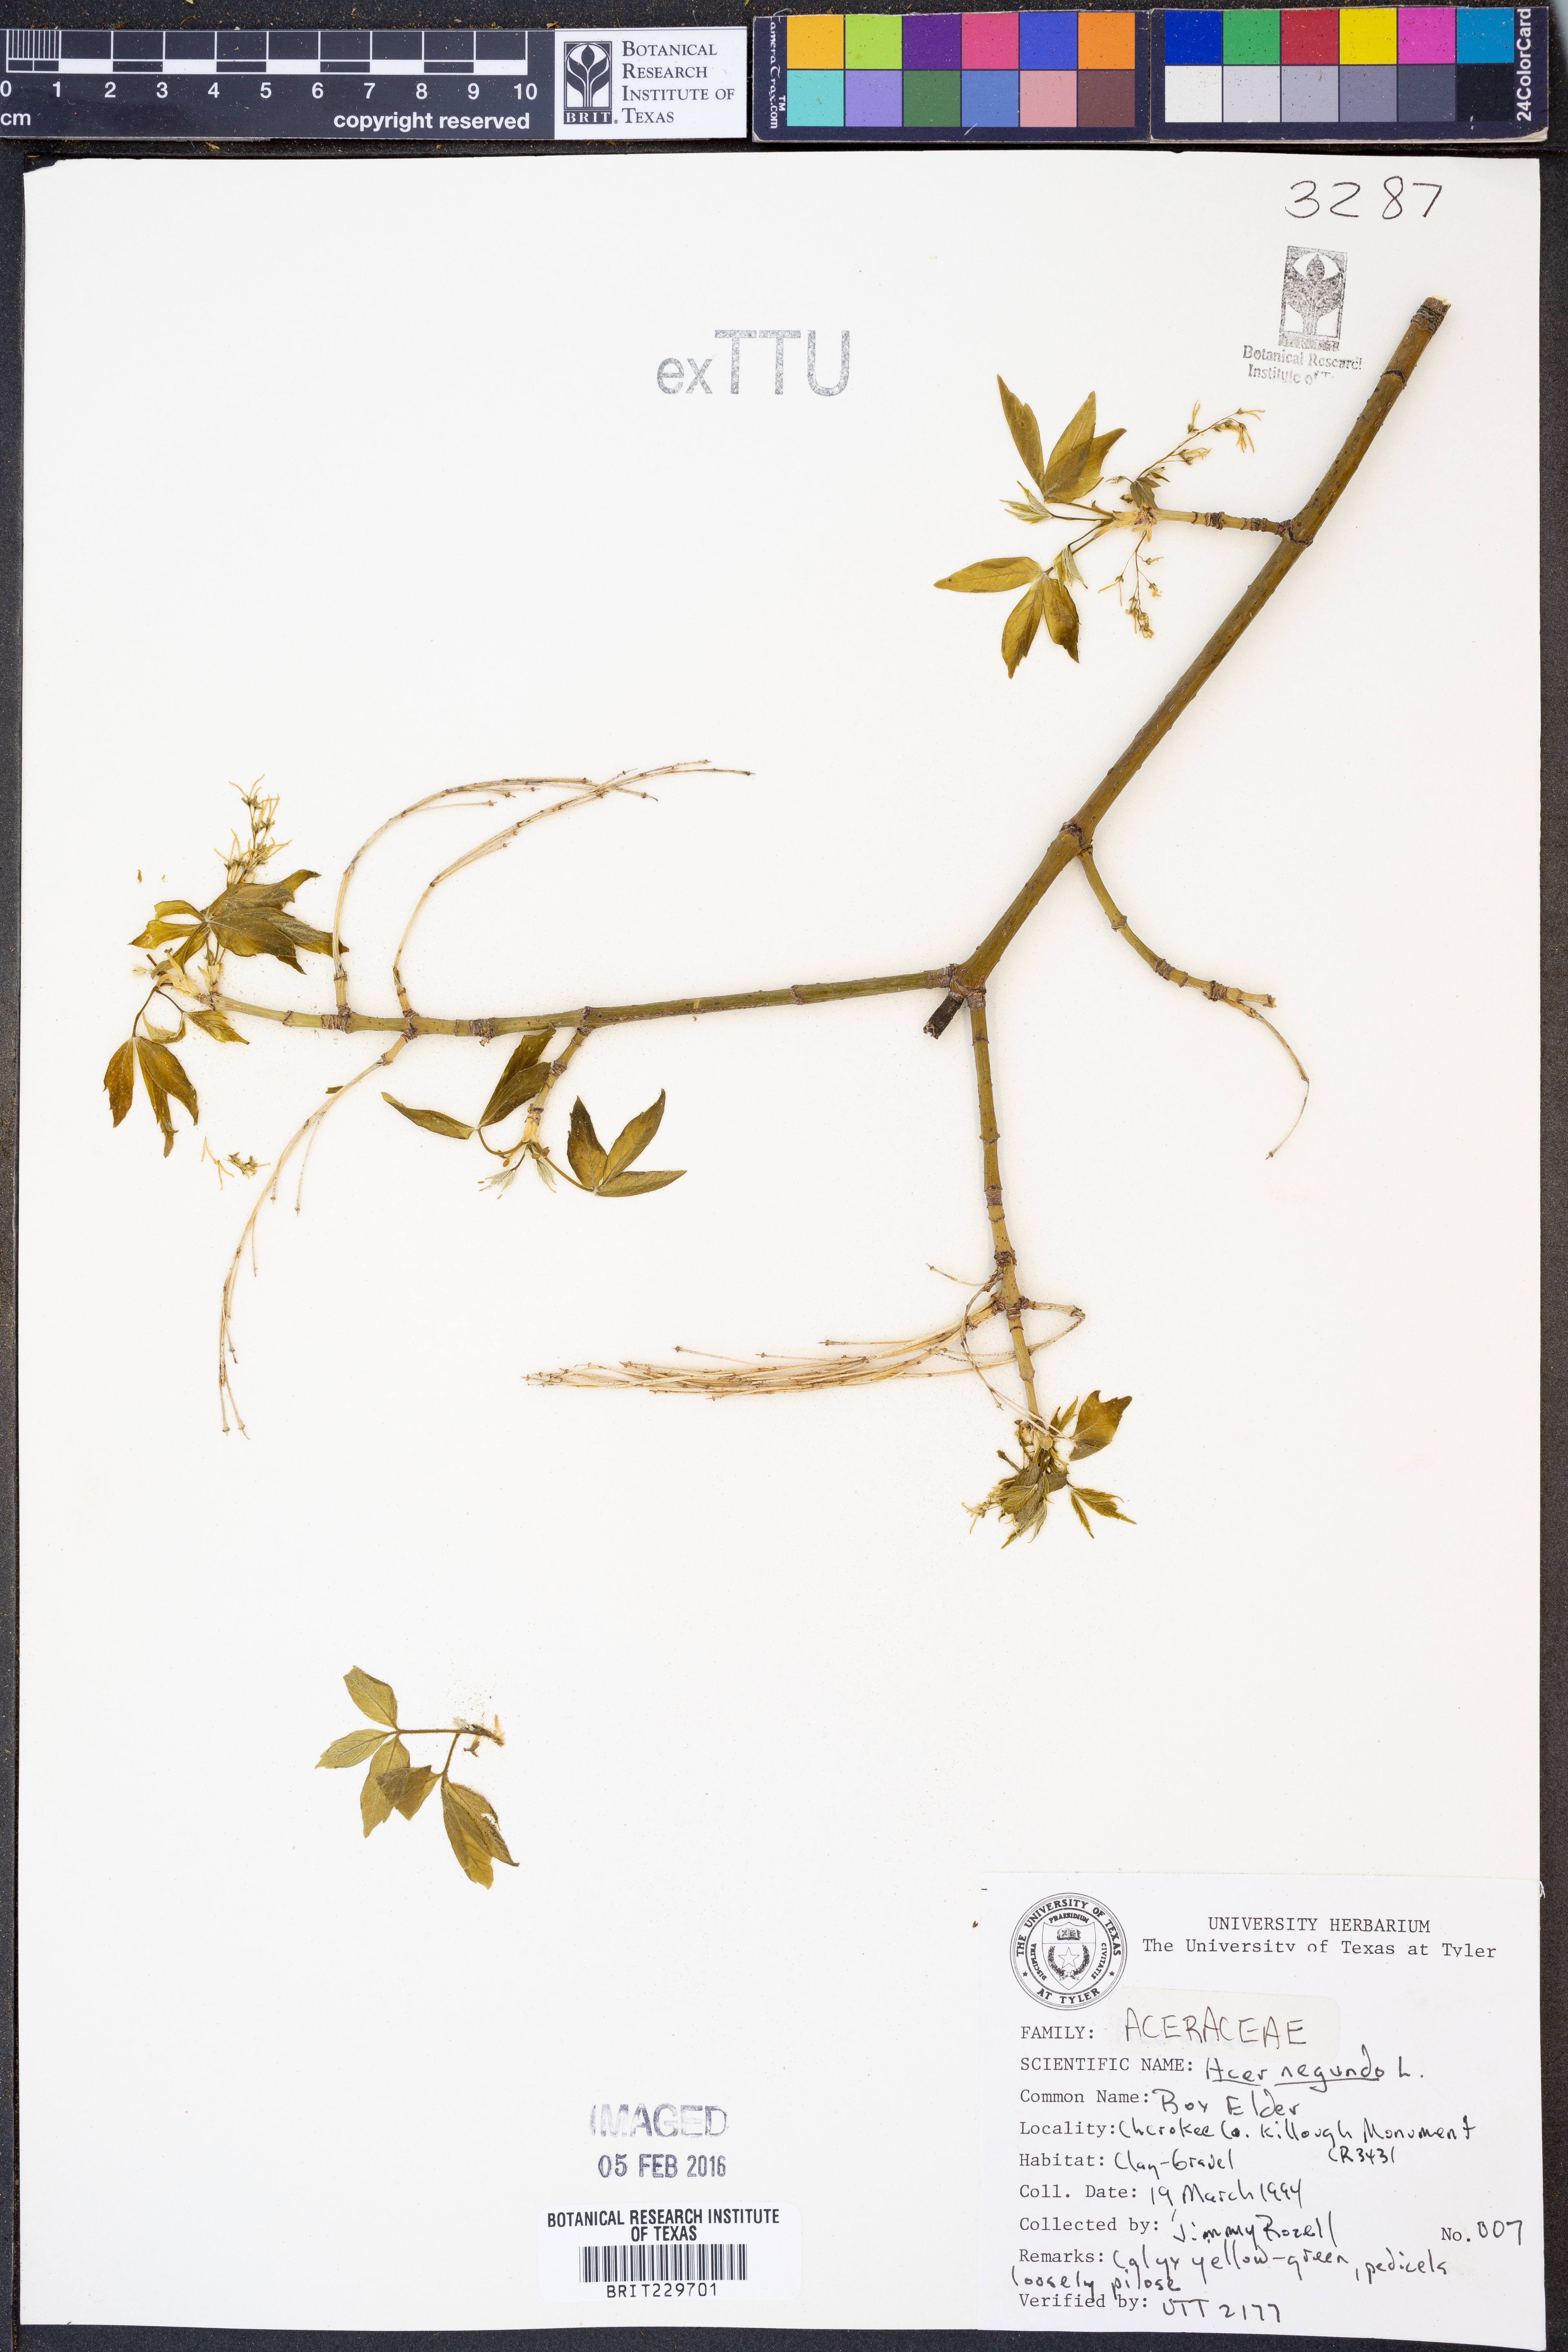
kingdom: Plantae
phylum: Tracheophyta
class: Magnoliopsida
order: Sapindales
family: Sapindaceae
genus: Acer
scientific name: Acer negundo
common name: Ashleaf maple
